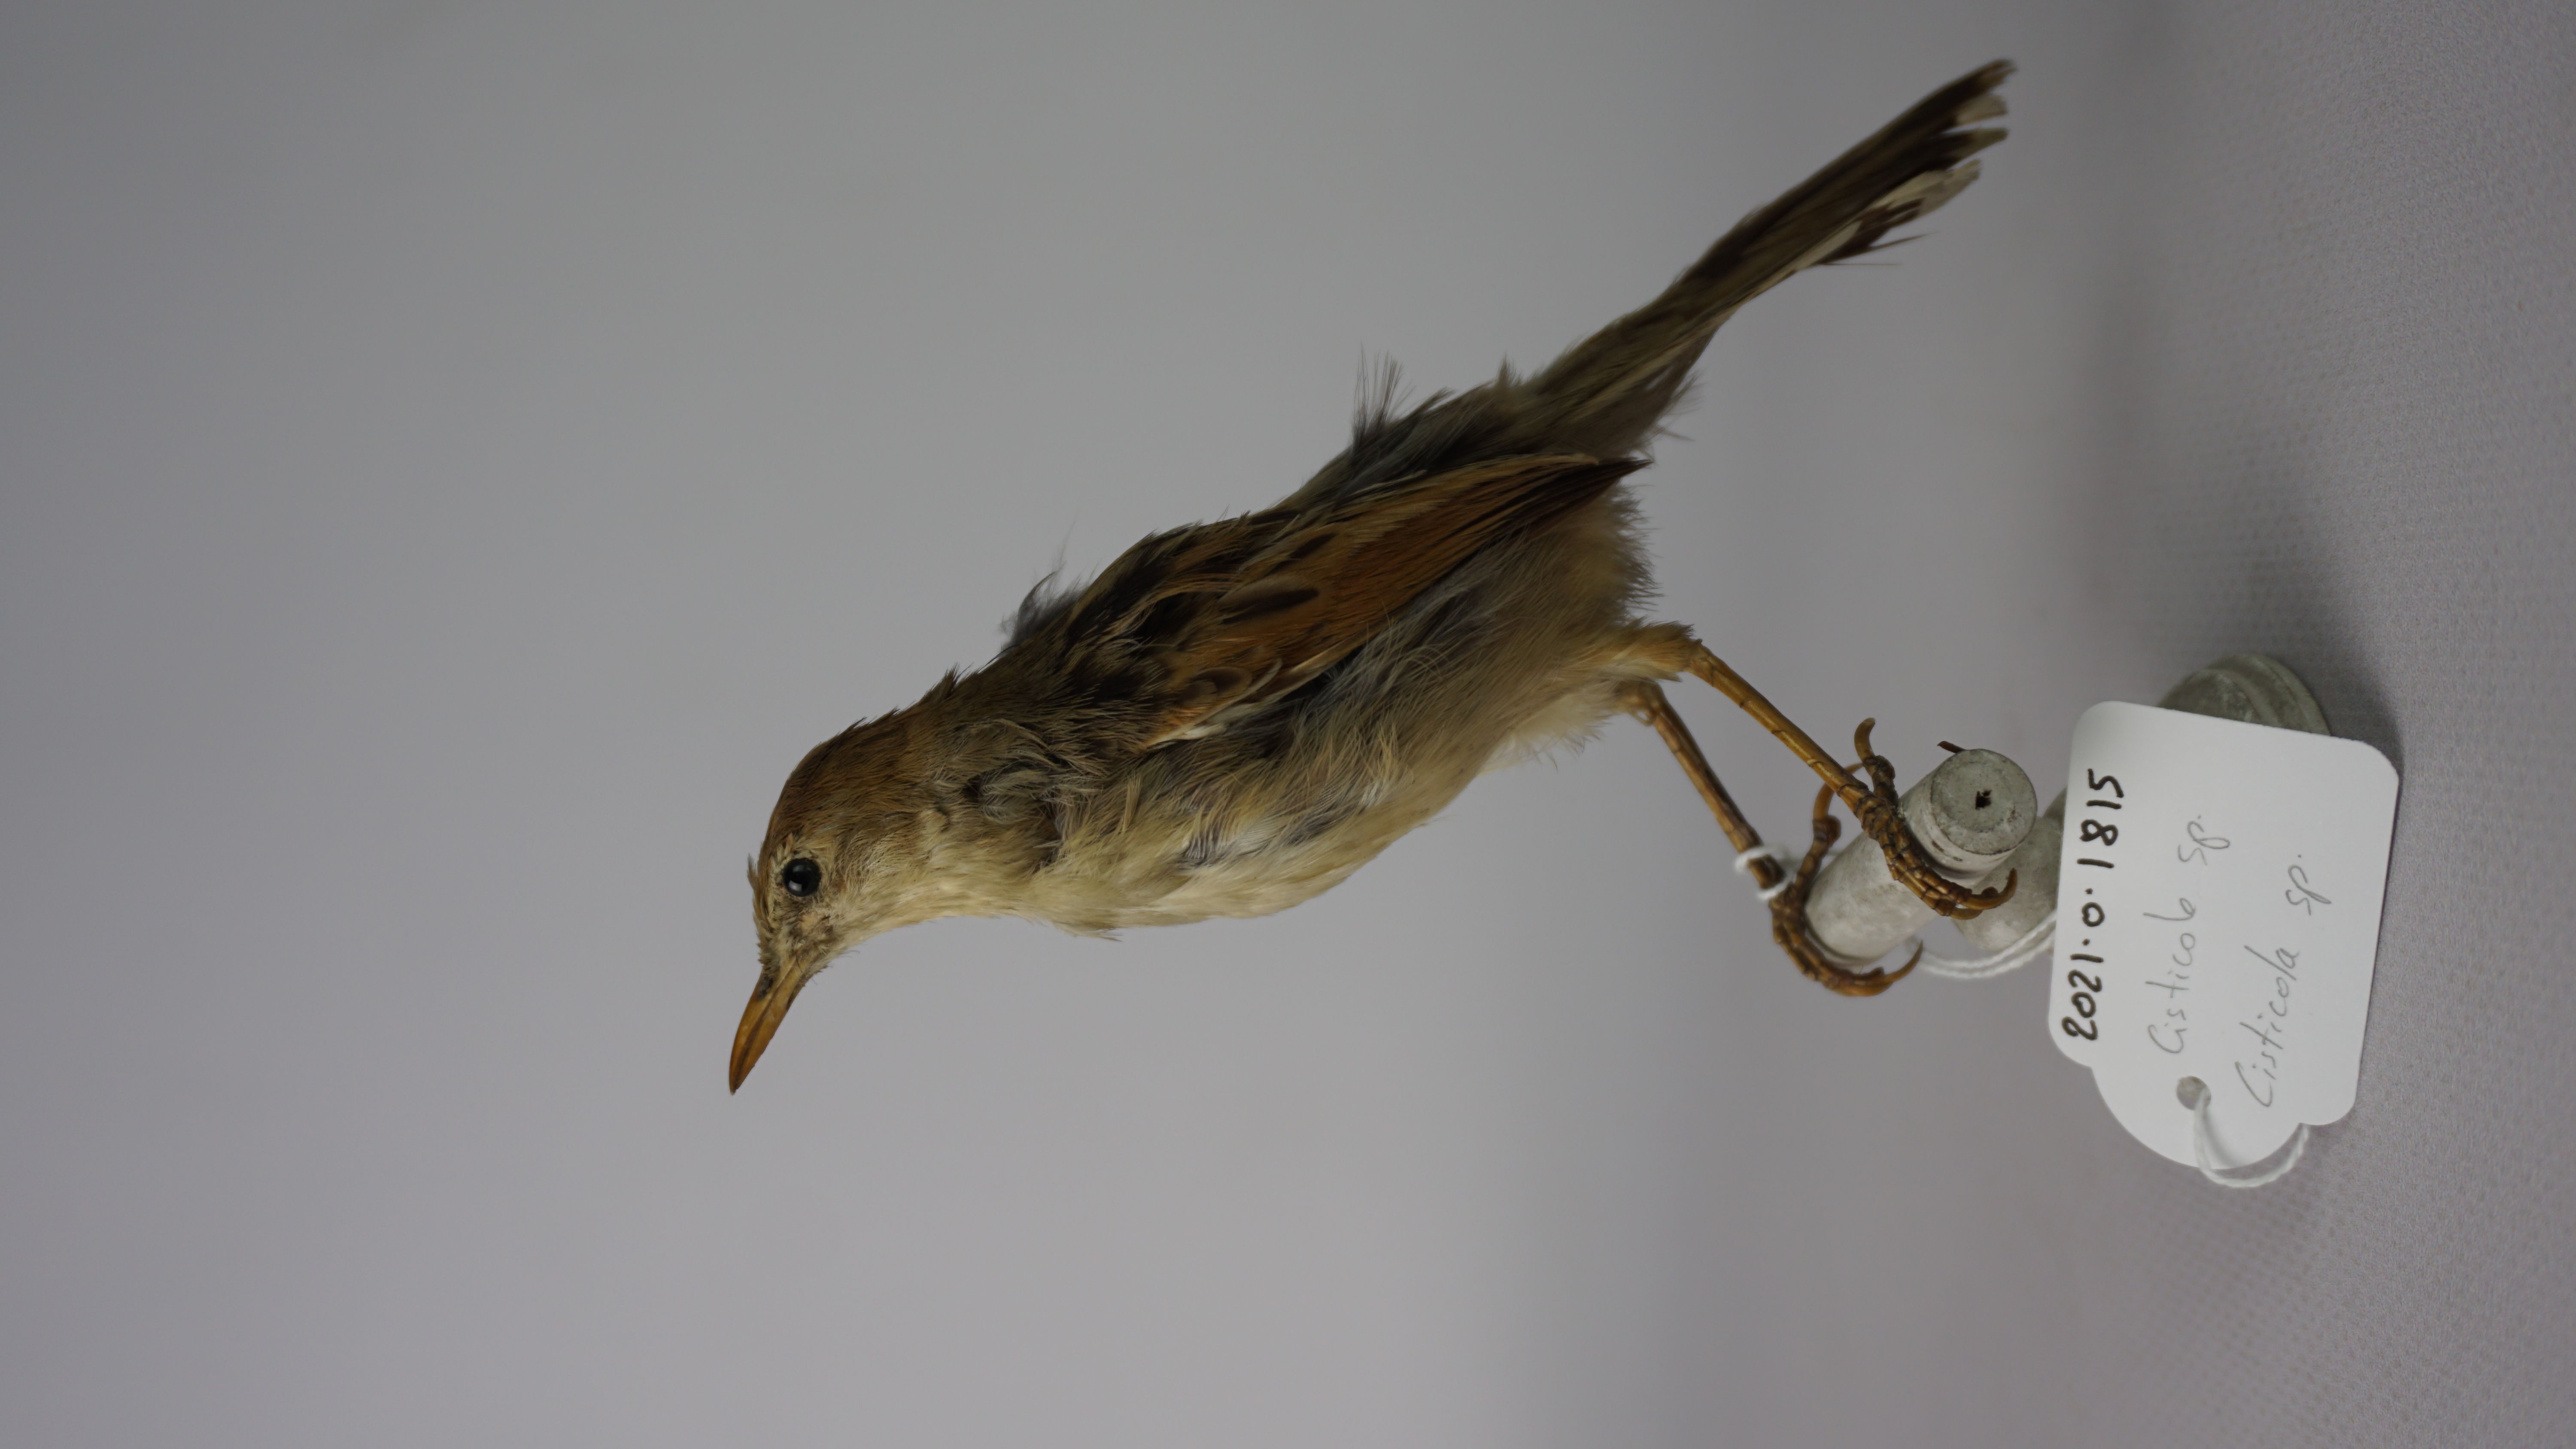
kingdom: Animalia
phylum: Chordata
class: Aves
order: Passeriformes
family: Cisticolidae
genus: Cisticola
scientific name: Cisticola
